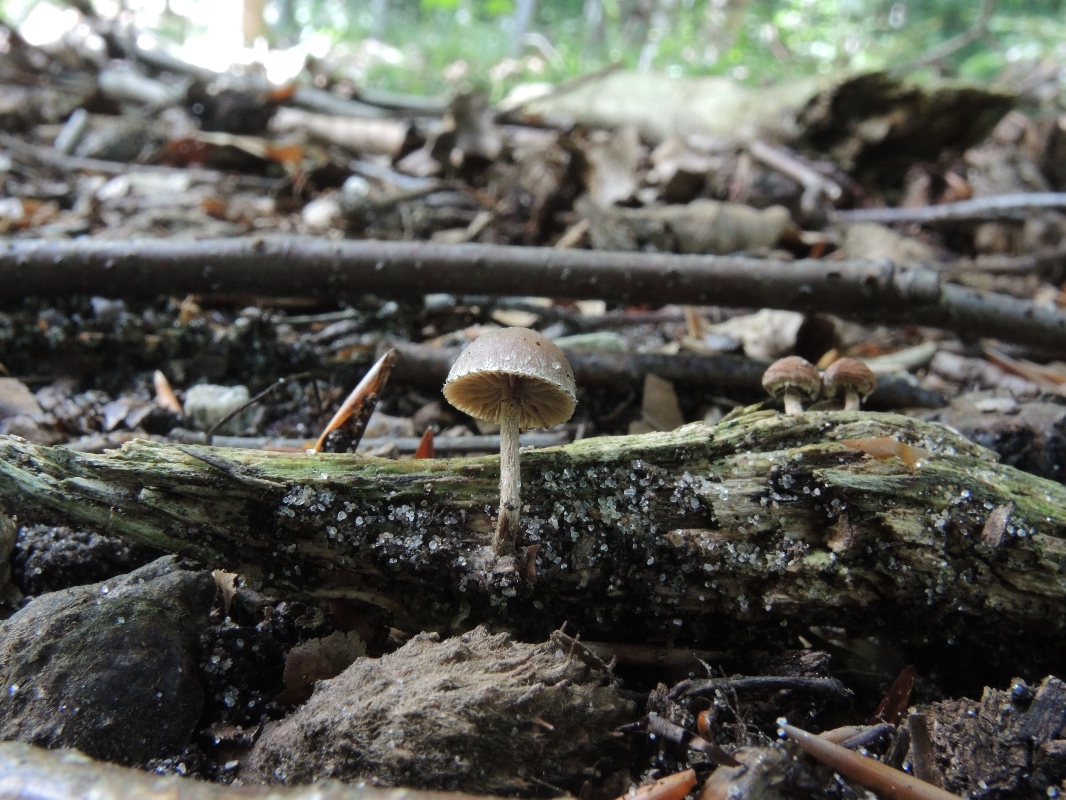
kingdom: Fungi
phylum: Basidiomycota
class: Agaricomycetes
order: Agaricales
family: Strophariaceae
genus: Deconica
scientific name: Deconica crobula
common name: træflis-stråhat
